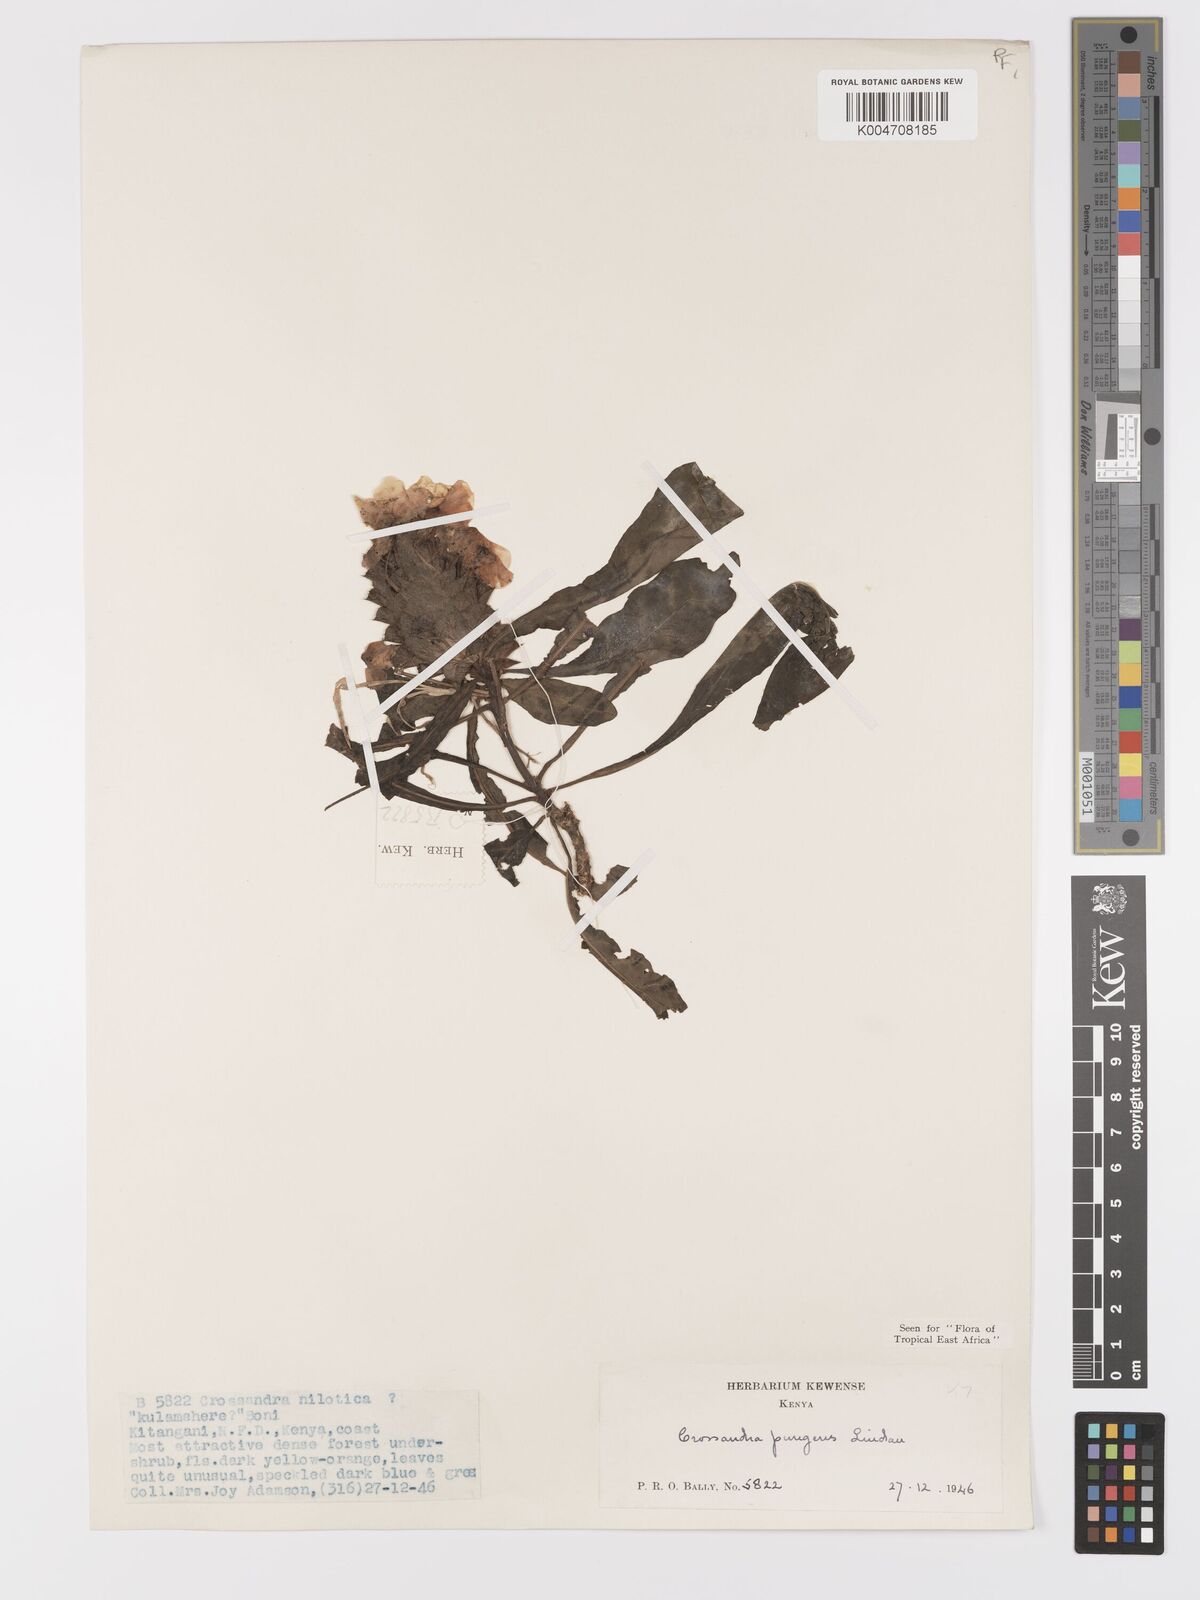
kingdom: Plantae
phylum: Tracheophyta
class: Magnoliopsida
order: Lamiales
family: Acanthaceae
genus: Crossandra
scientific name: Crossandra pungens
